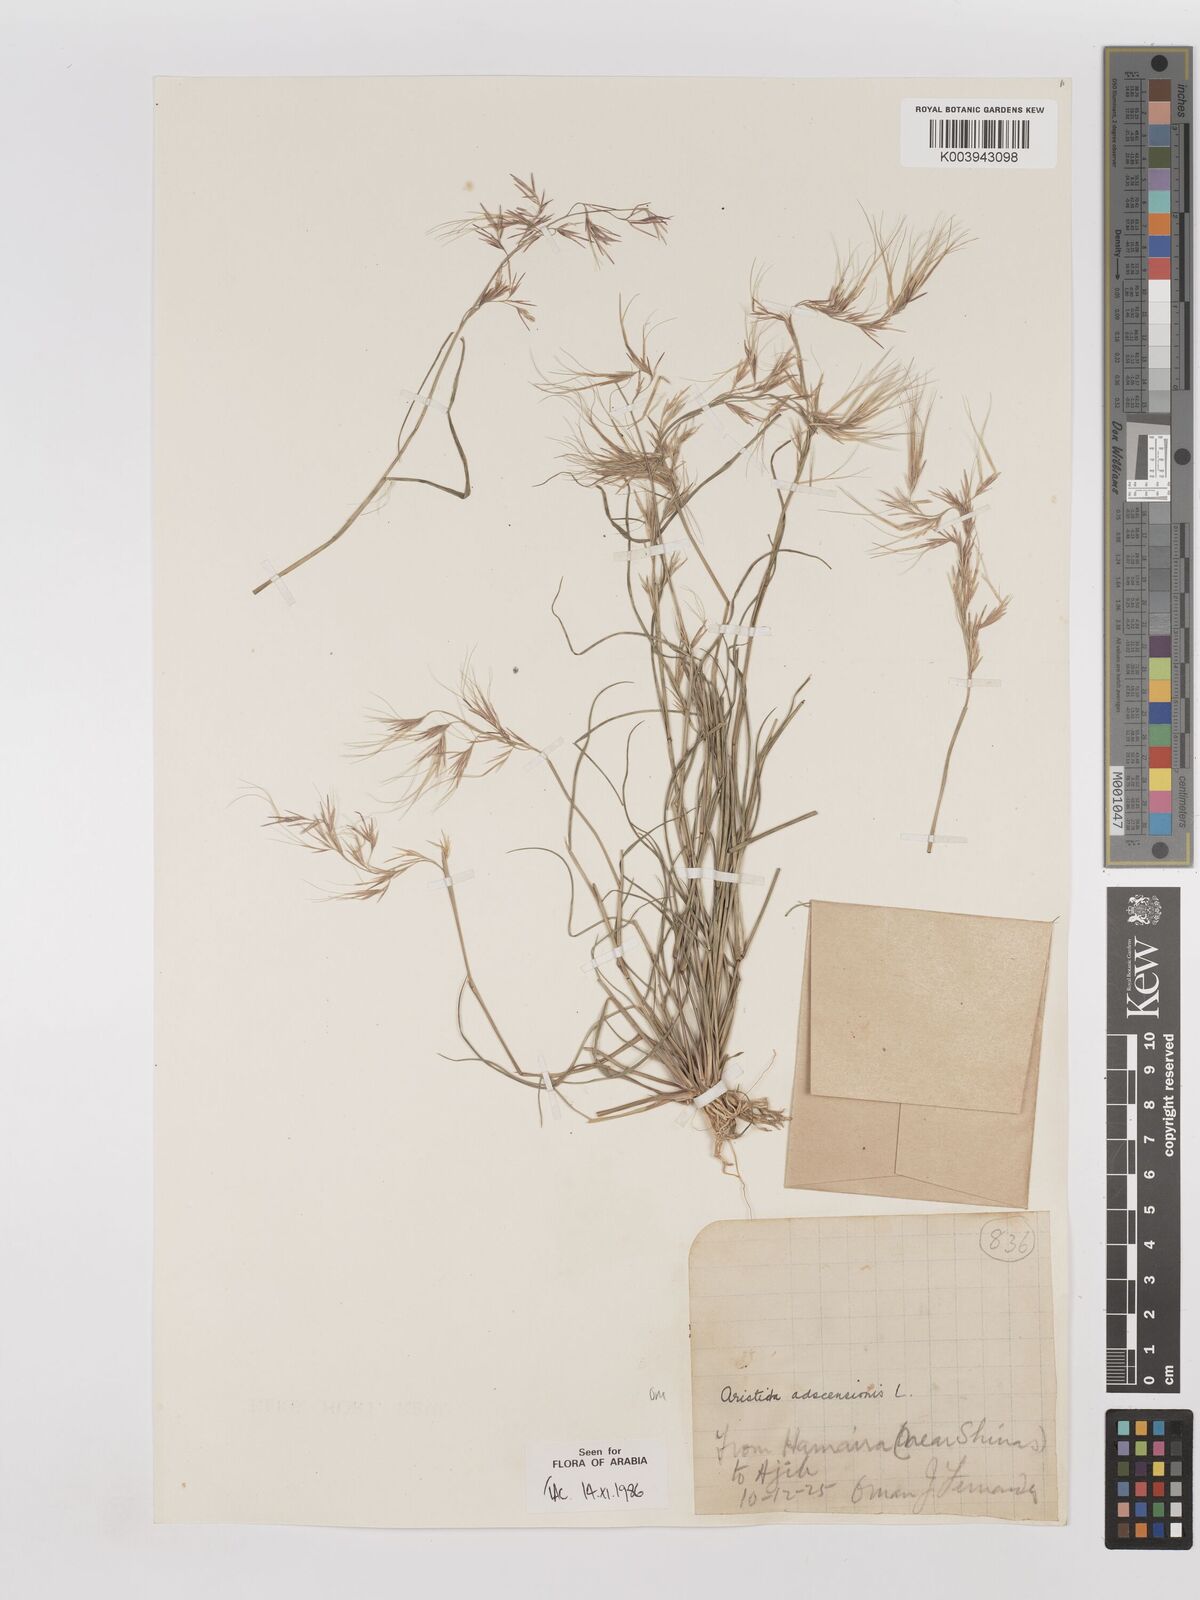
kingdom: Plantae
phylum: Tracheophyta
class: Liliopsida
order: Poales
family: Poaceae
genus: Aristida
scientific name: Aristida adscensionis
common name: Sixweeks threeawn
